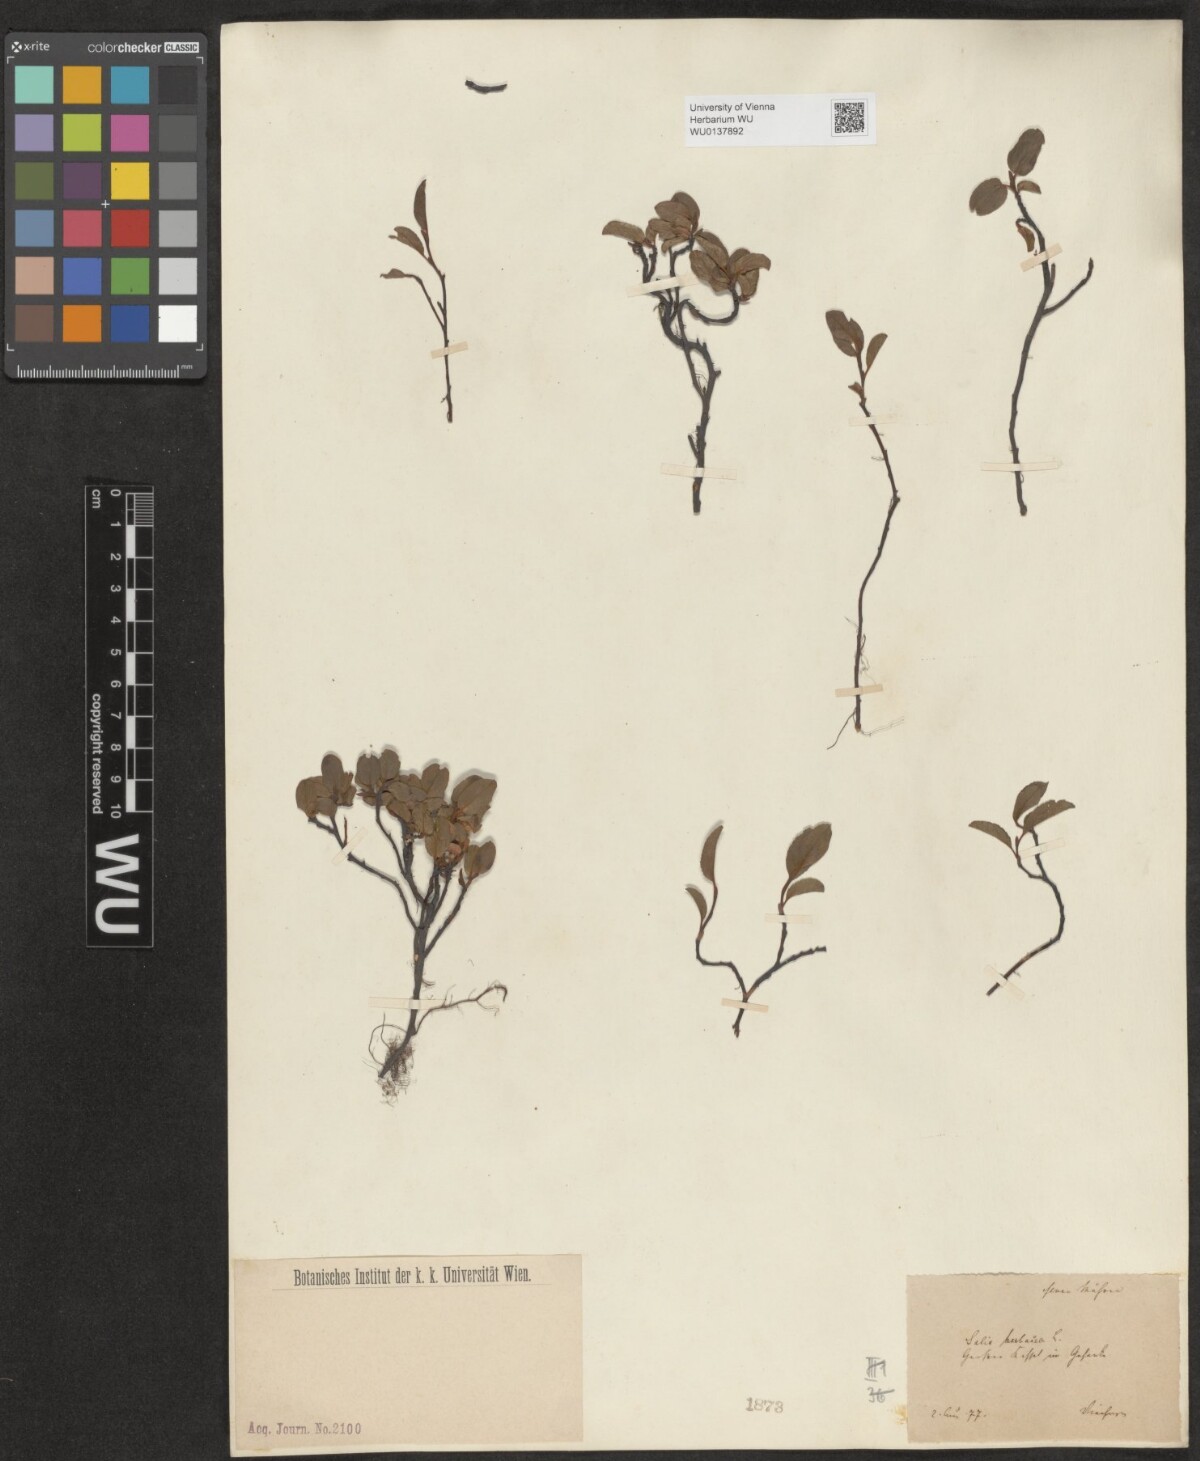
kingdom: Plantae
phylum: Tracheophyta
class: Magnoliopsida
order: Malpighiales
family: Salicaceae
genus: Salix
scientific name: Salix herbacea
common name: Dwarf willow
